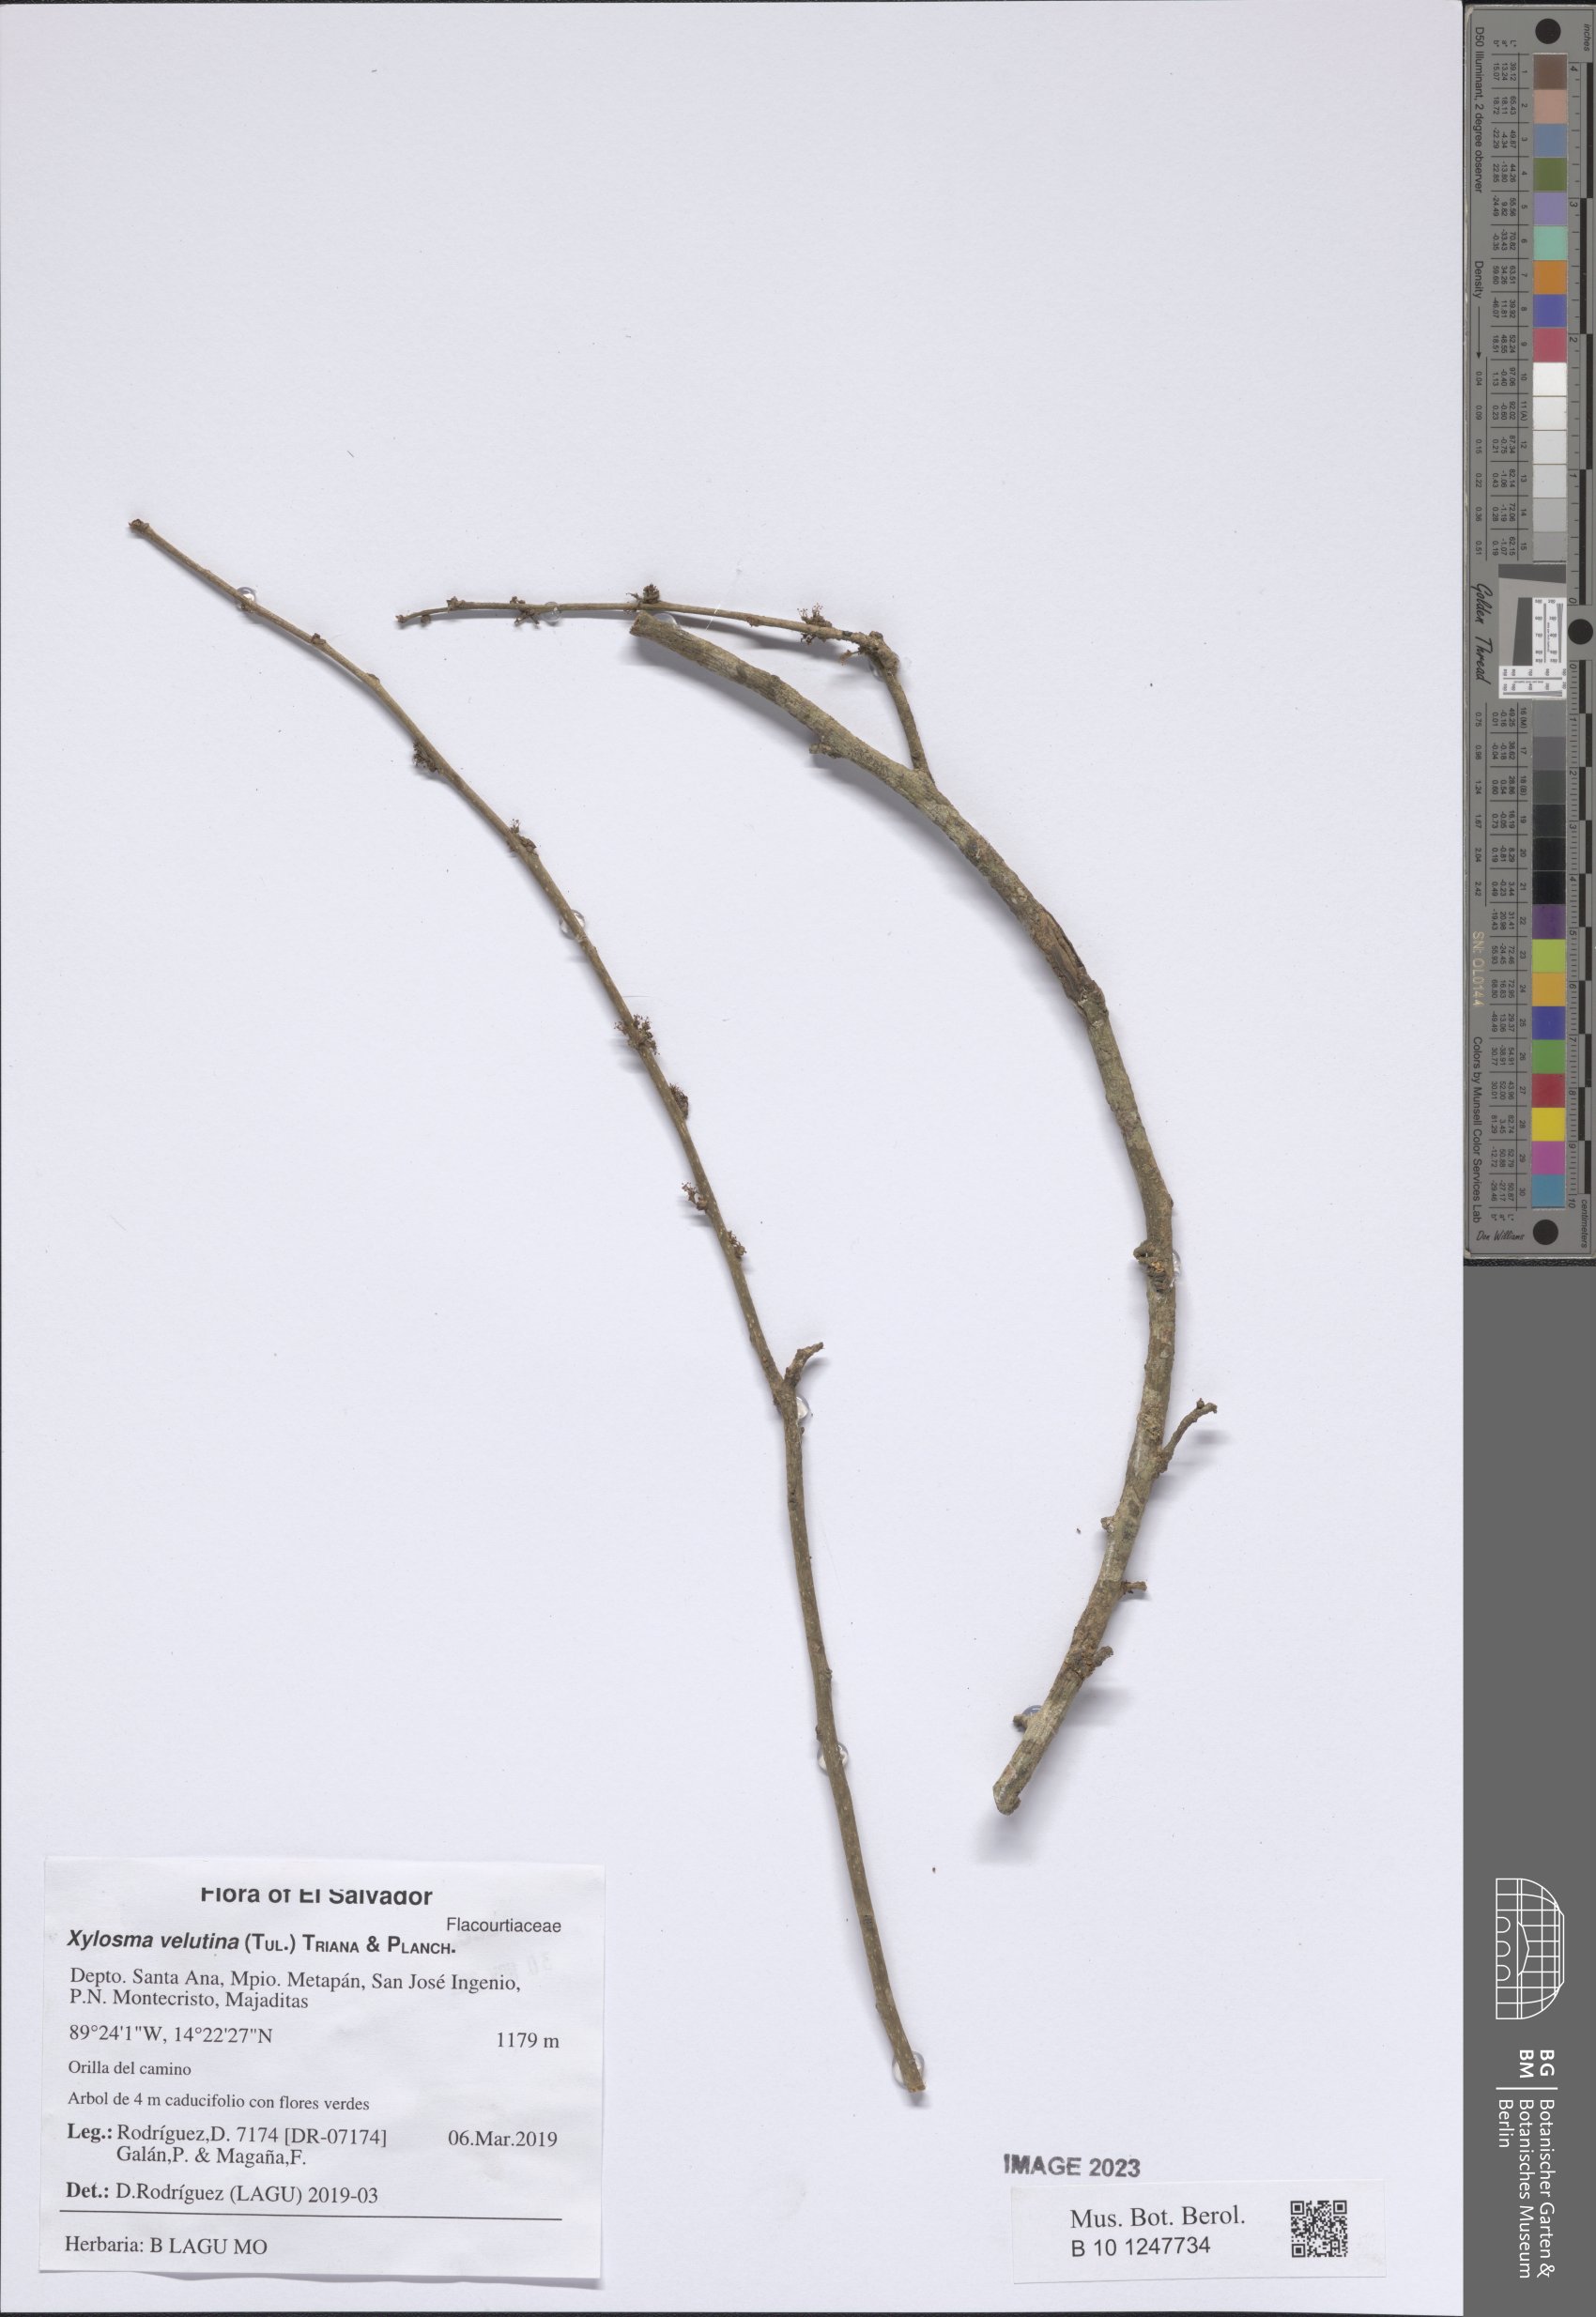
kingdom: Plantae
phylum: Tracheophyta
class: Magnoliopsida
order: Malpighiales
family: Salicaceae
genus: Xylosma
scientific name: Xylosma velutina
